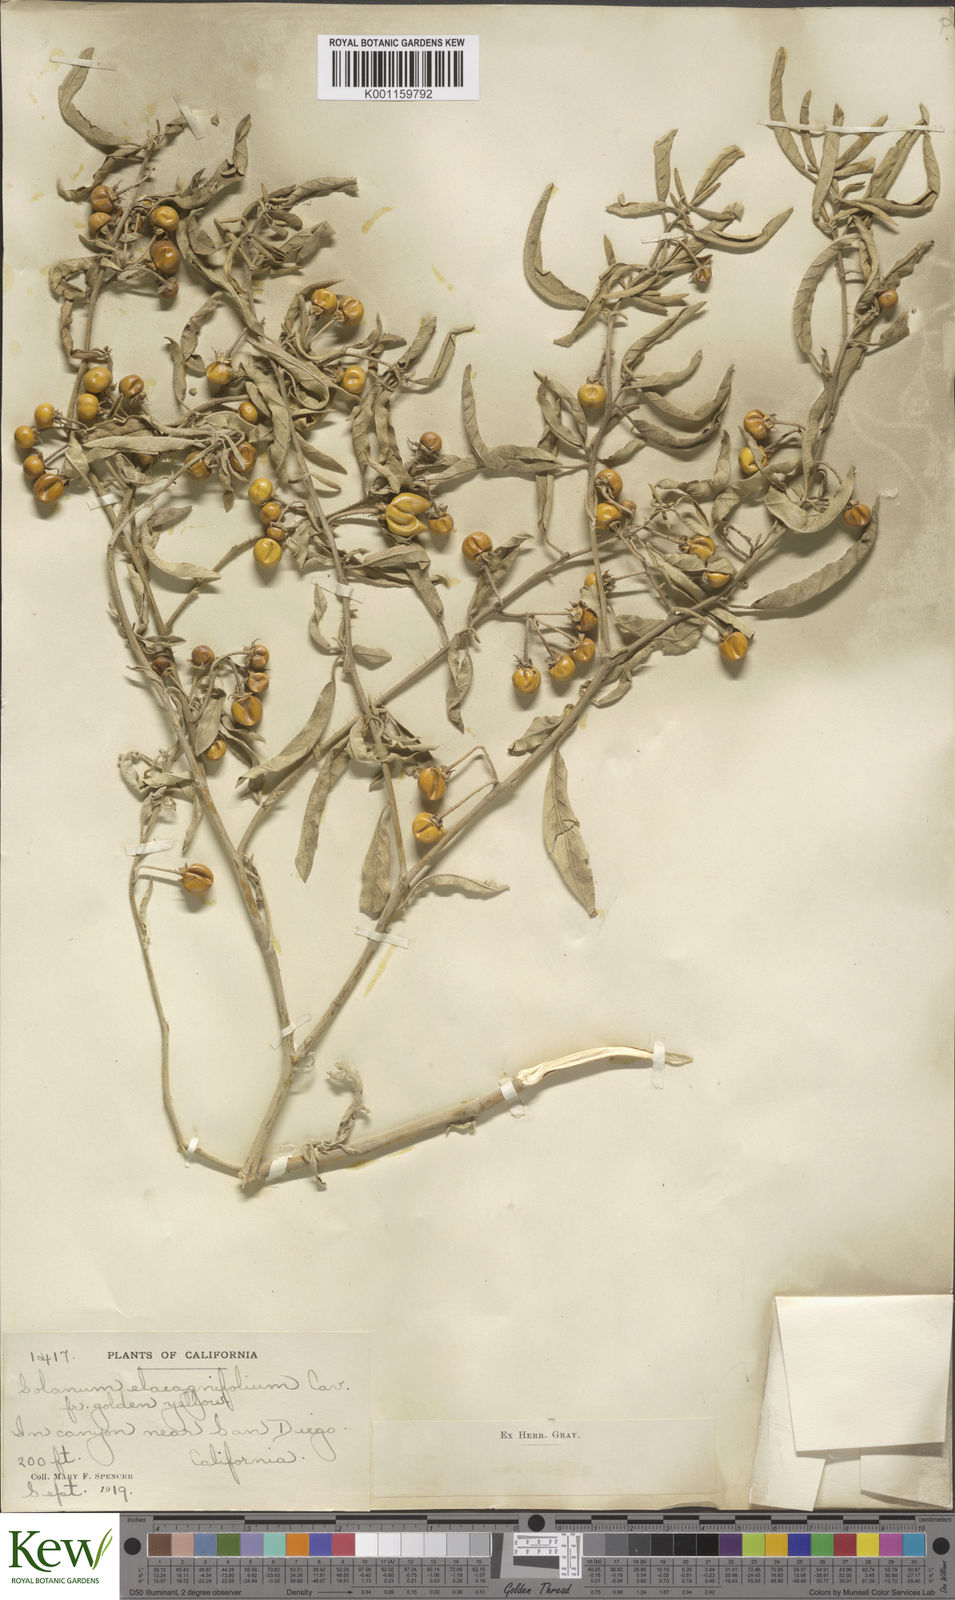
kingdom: Plantae
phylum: Tracheophyta
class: Magnoliopsida
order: Solanales
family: Solanaceae
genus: Solanum
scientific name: Solanum
